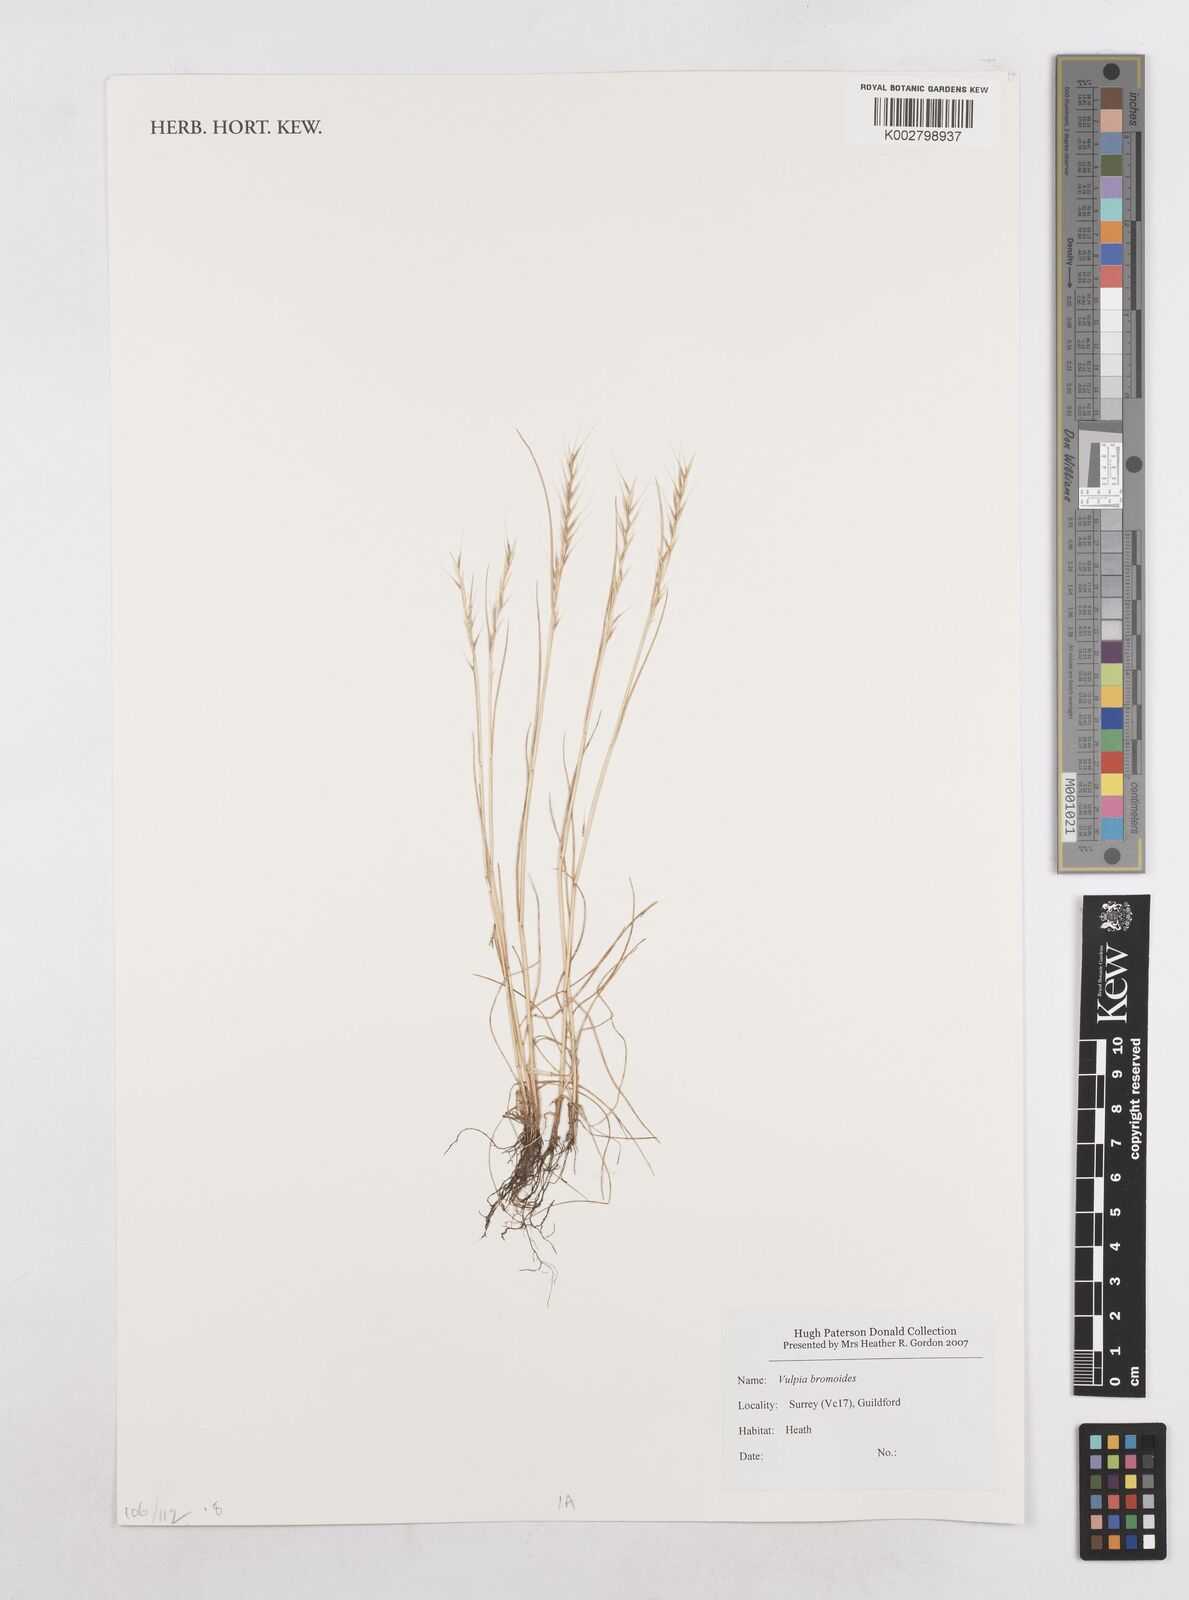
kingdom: Plantae
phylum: Tracheophyta
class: Liliopsida
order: Poales
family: Poaceae
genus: Festuca
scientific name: Festuca bromoides
